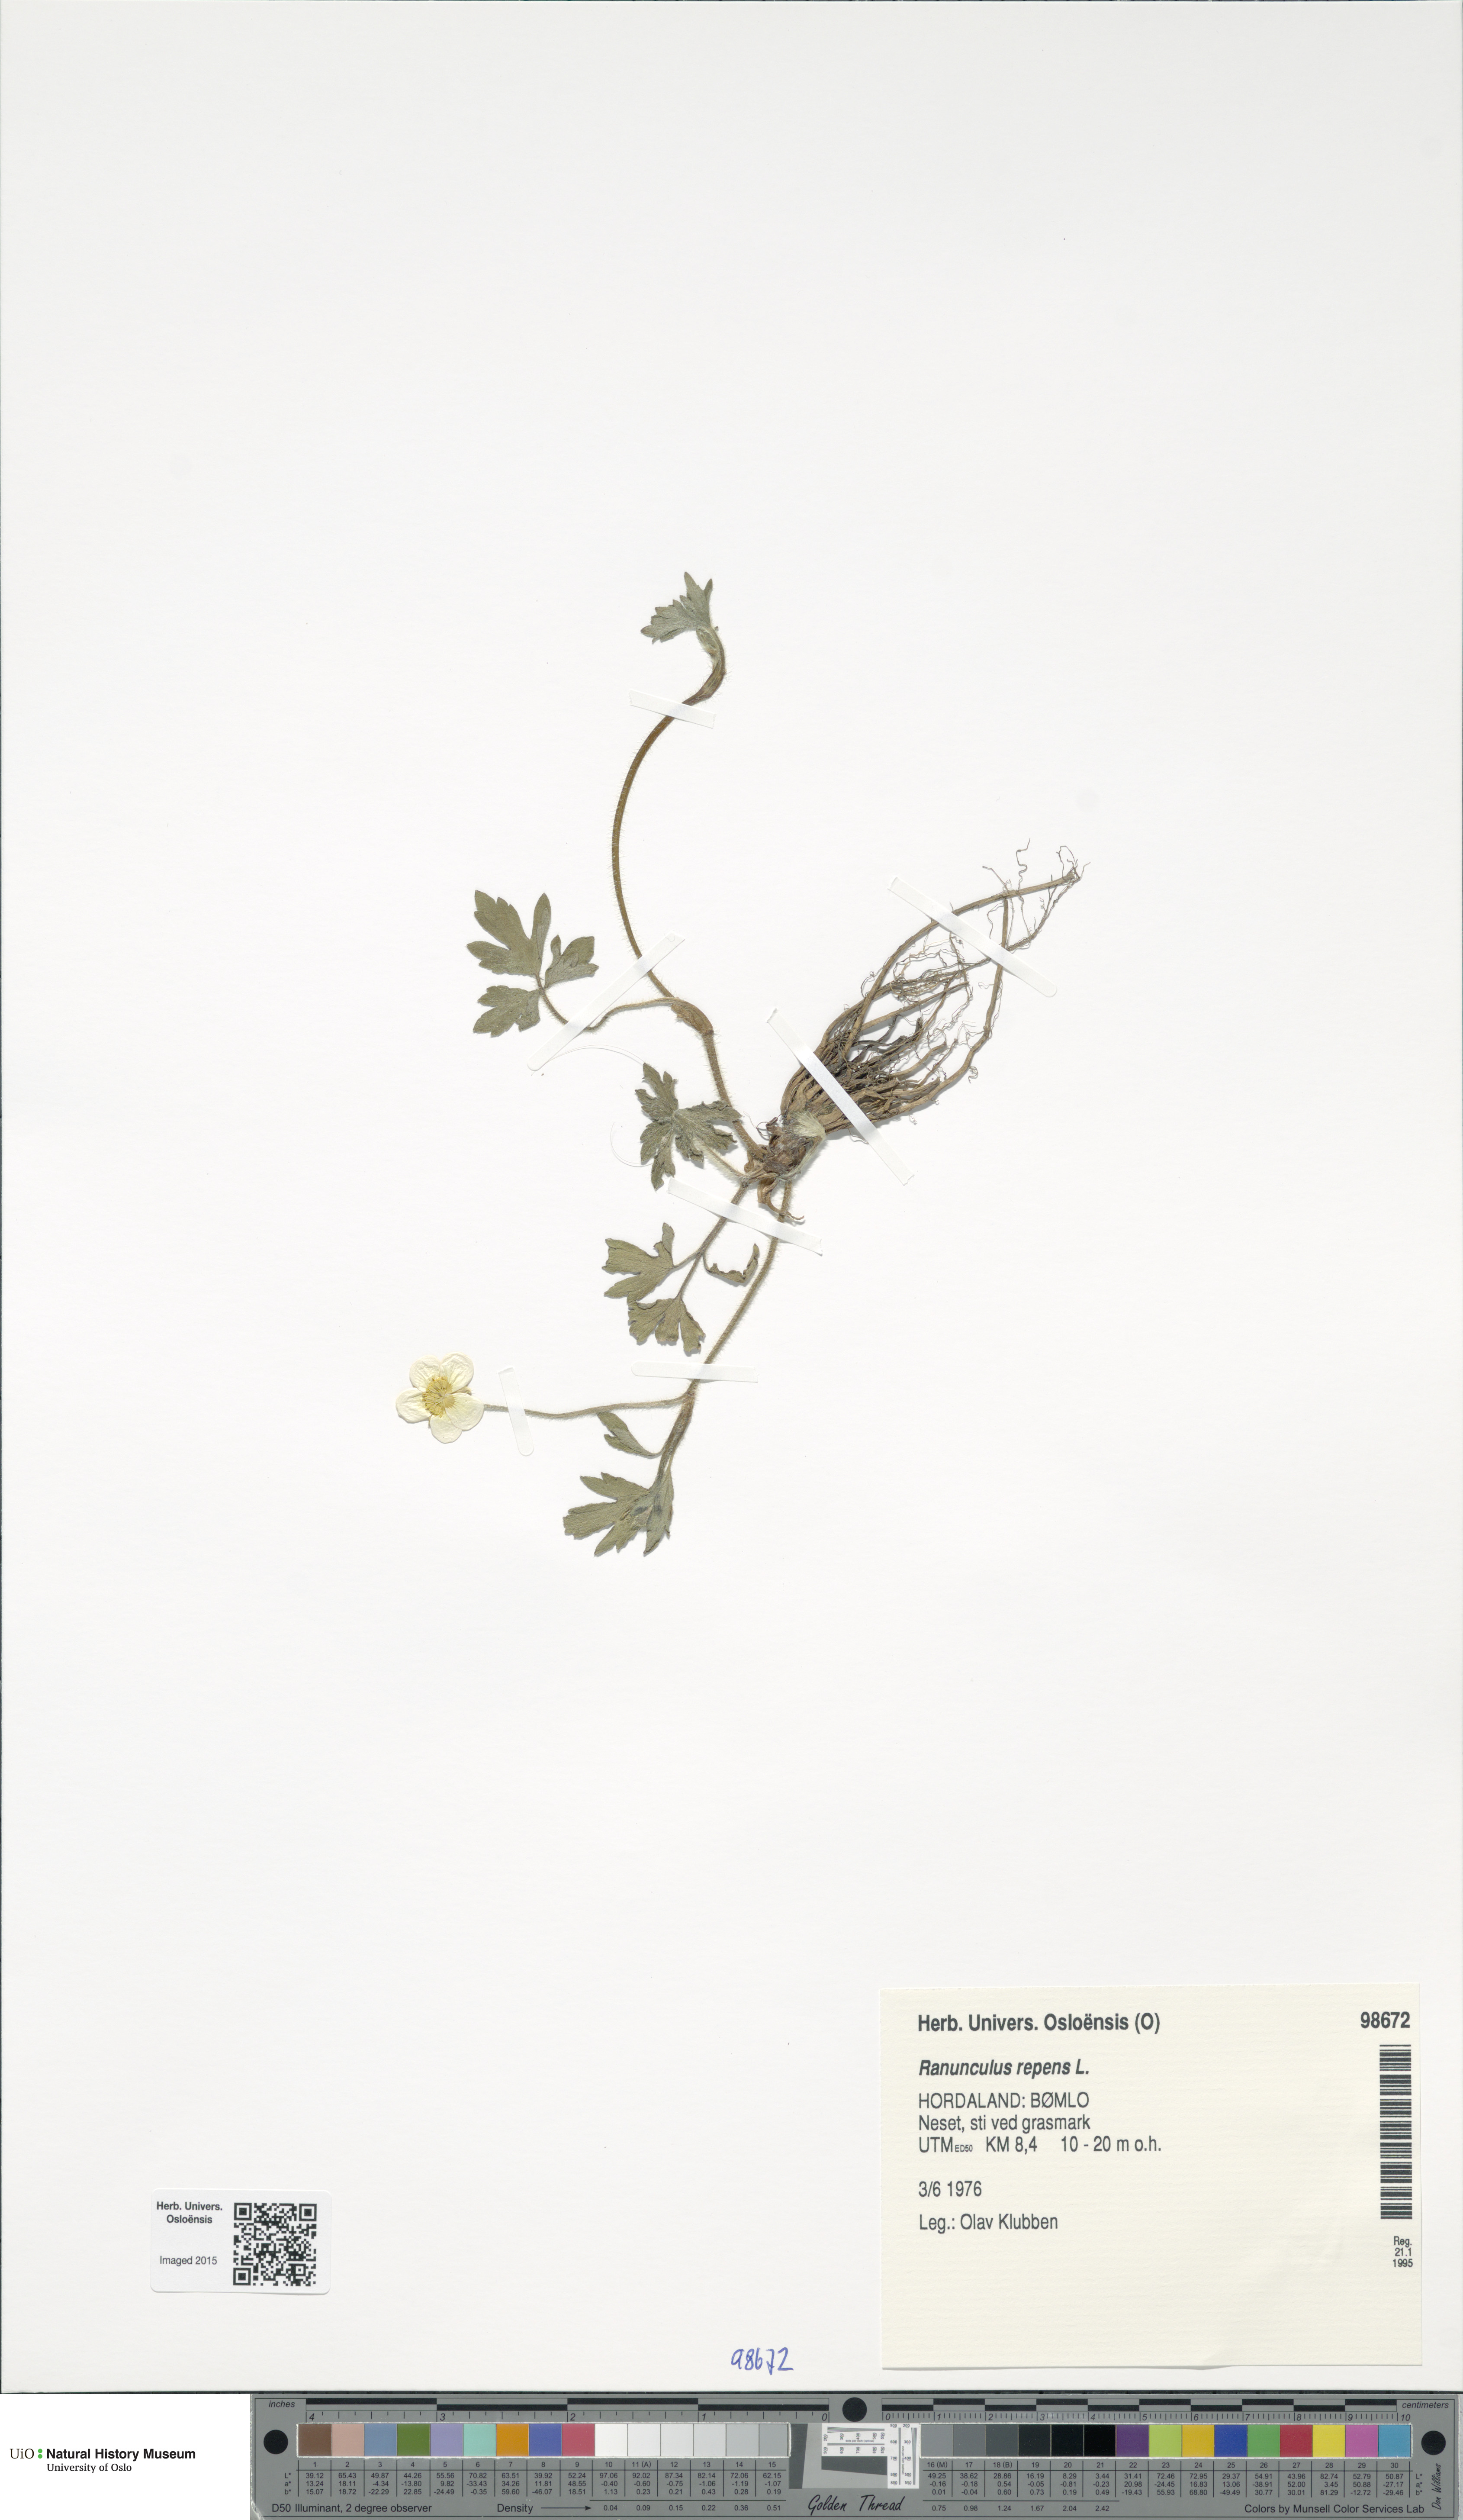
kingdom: Plantae
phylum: Tracheophyta
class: Magnoliopsida
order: Ranunculales
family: Ranunculaceae
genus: Ranunculus
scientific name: Ranunculus repens
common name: Creeping buttercup
